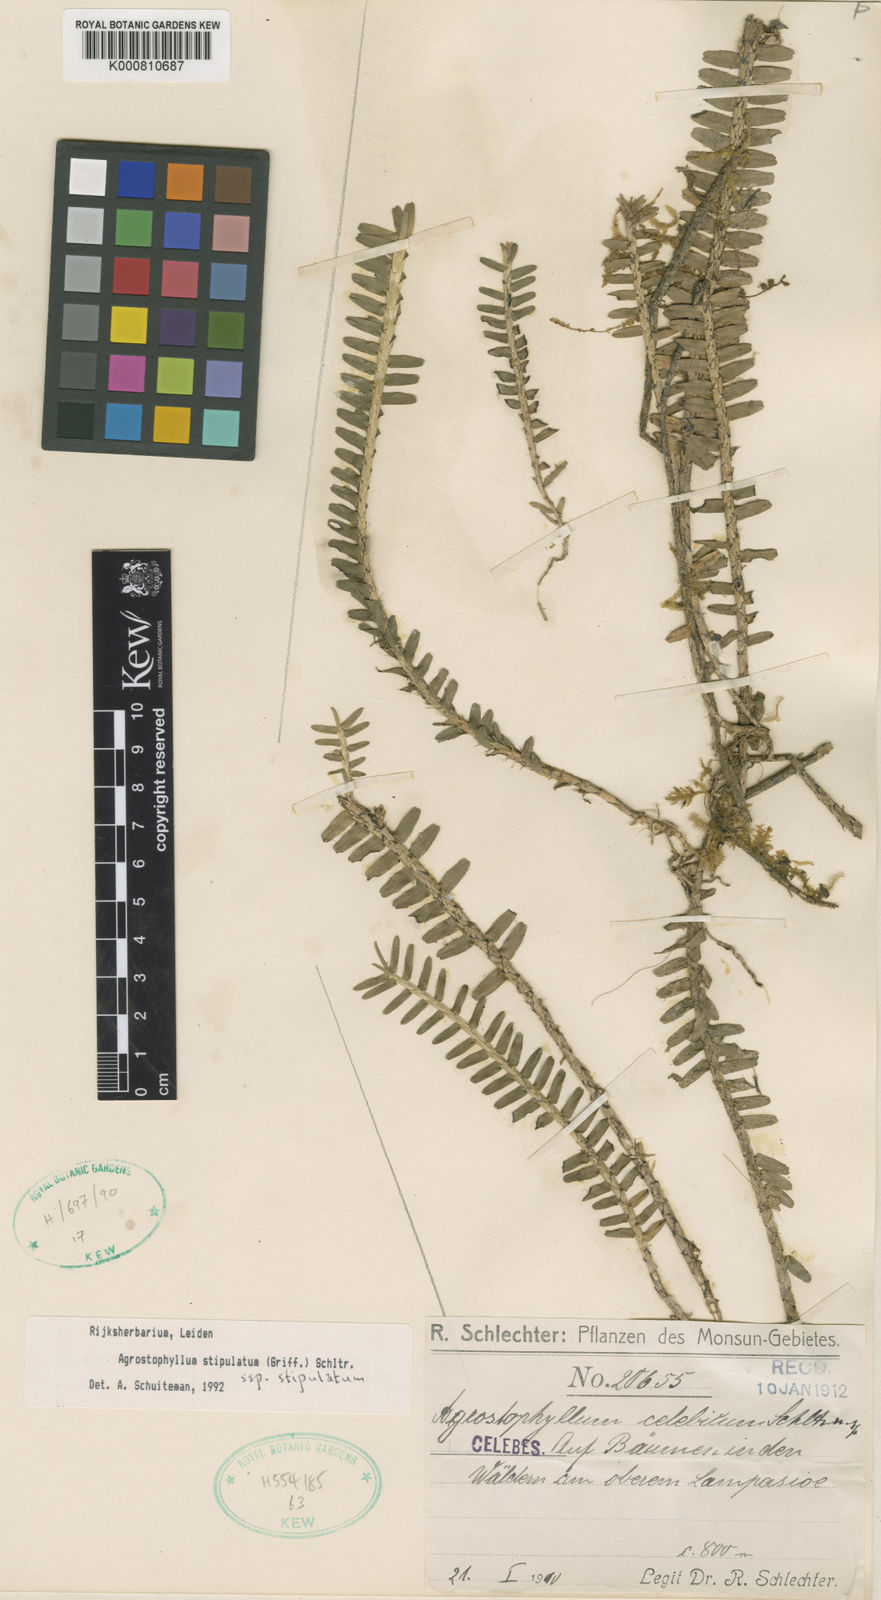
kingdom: Plantae
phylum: Tracheophyta
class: Liliopsida
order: Asparagales
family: Orchidaceae
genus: Agrostophyllum
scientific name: Agrostophyllum stipulatum
